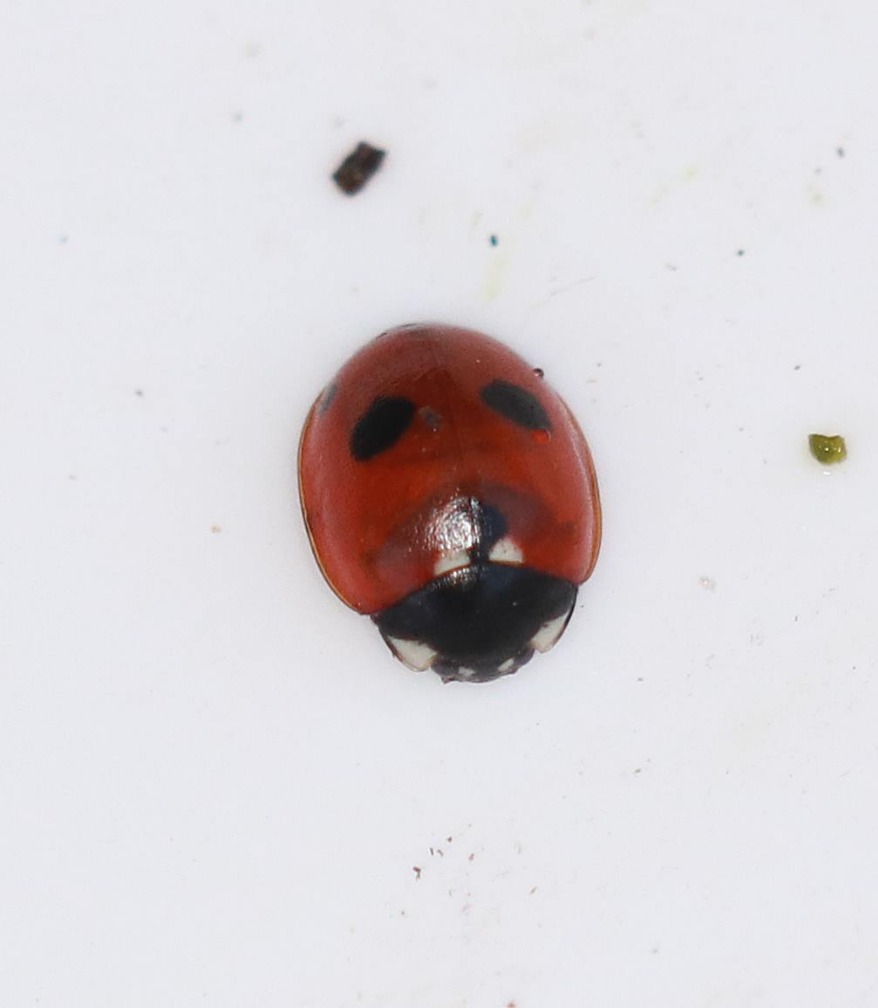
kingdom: Animalia
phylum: Arthropoda
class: Insecta
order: Coleoptera
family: Coccinellidae
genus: Coccinella
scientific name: Coccinella quinquepunctata
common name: Femplettet mariehøne
